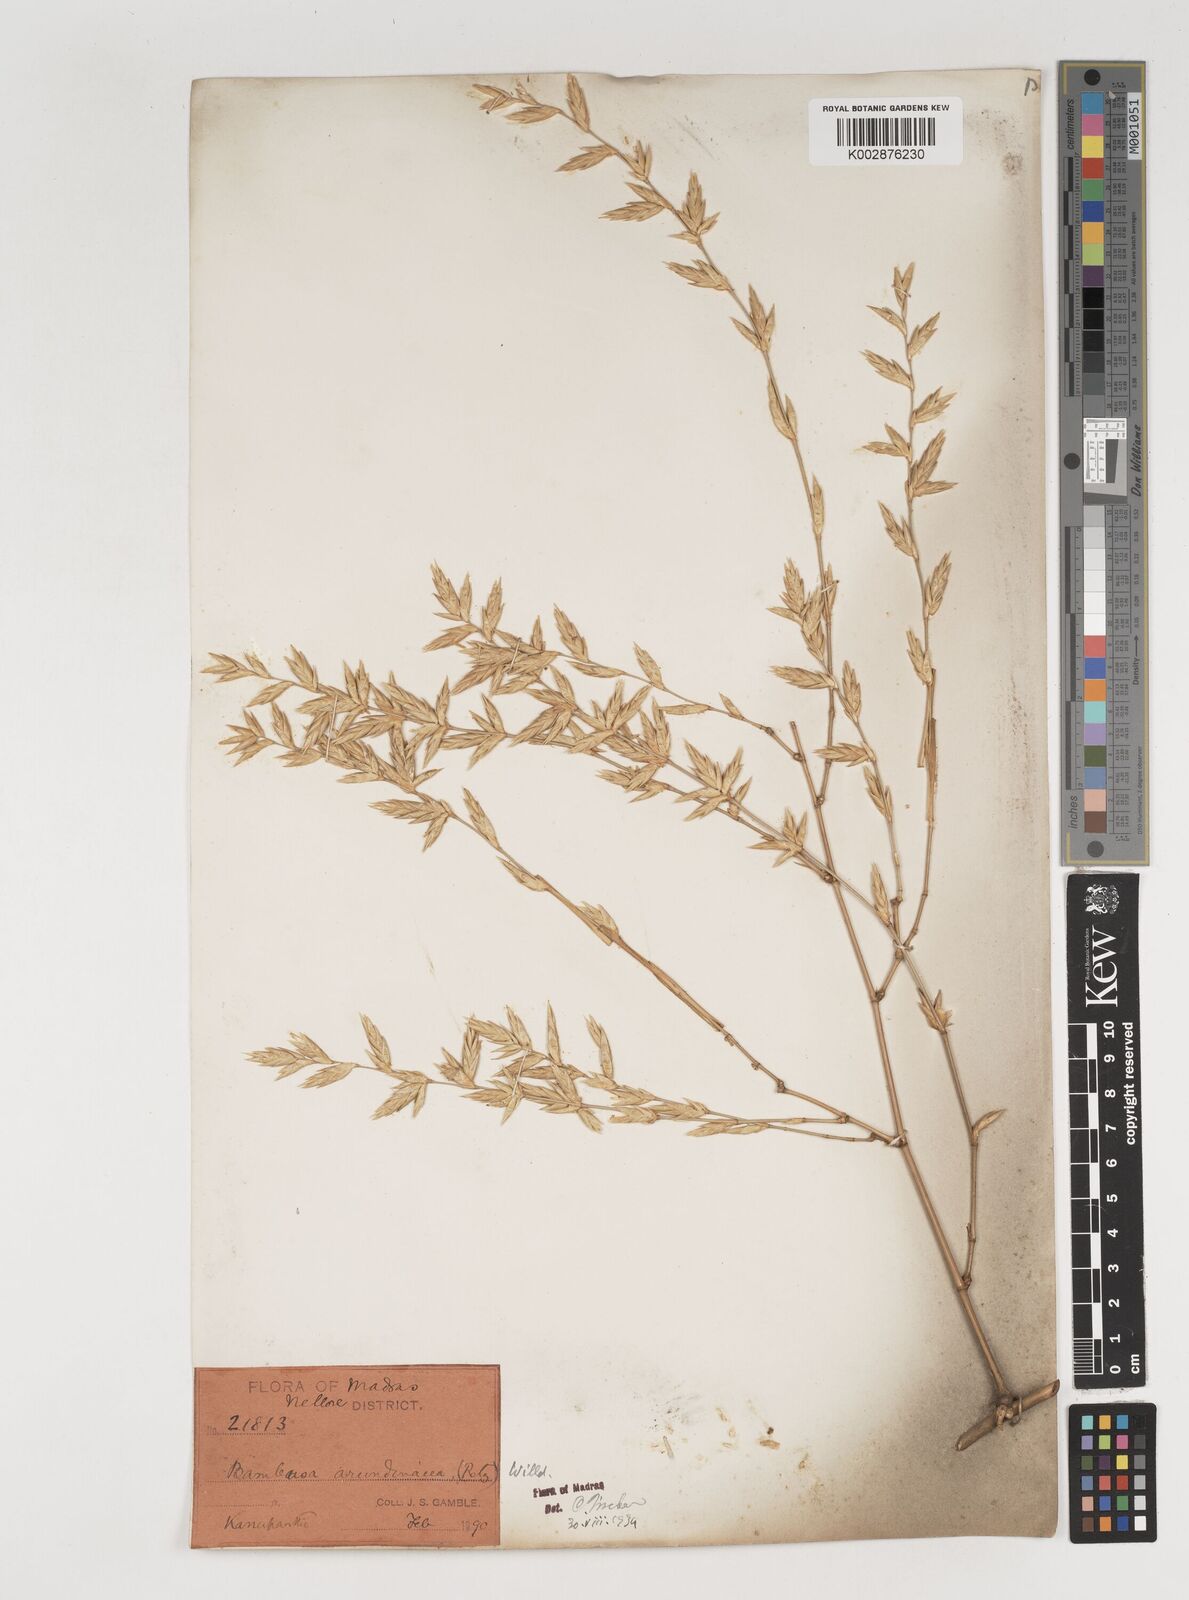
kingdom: Plantae
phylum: Tracheophyta
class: Liliopsida
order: Poales
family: Poaceae
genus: Bambusa
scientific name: Bambusa bambos
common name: Indian thorny bamboo
